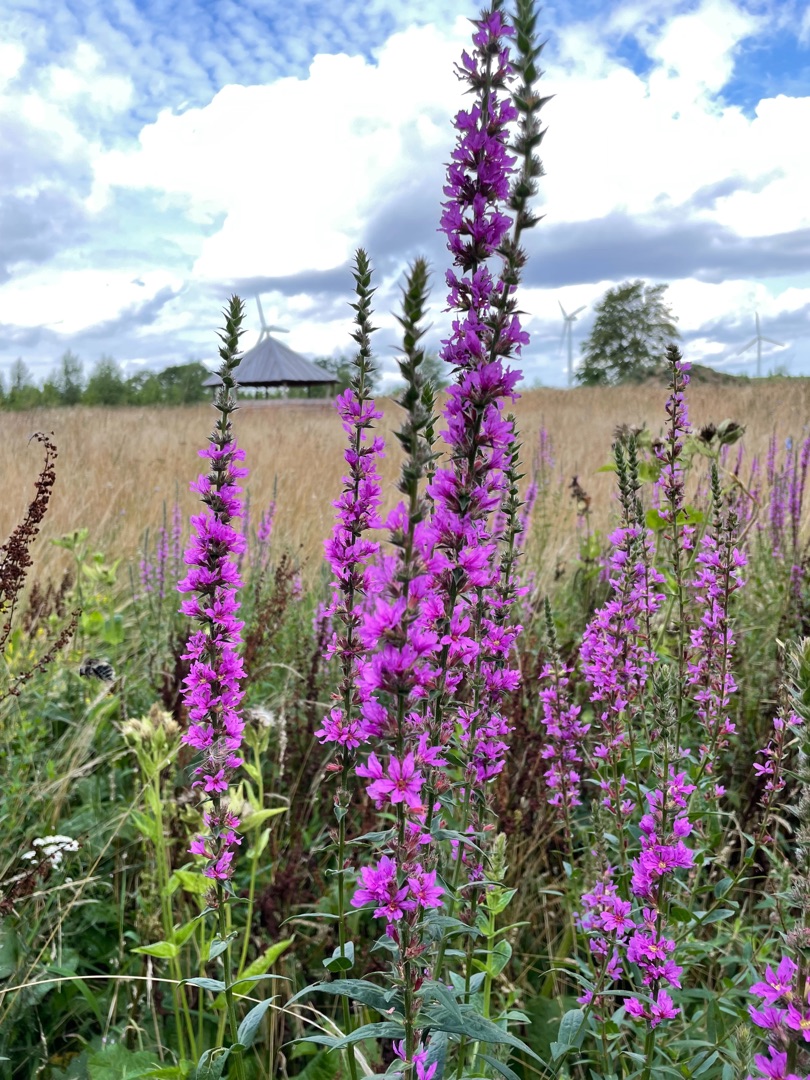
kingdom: Plantae
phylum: Tracheophyta
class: Magnoliopsida
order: Myrtales
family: Lythraceae
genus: Lythrum
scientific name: Lythrum salicaria
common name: Kattehale
